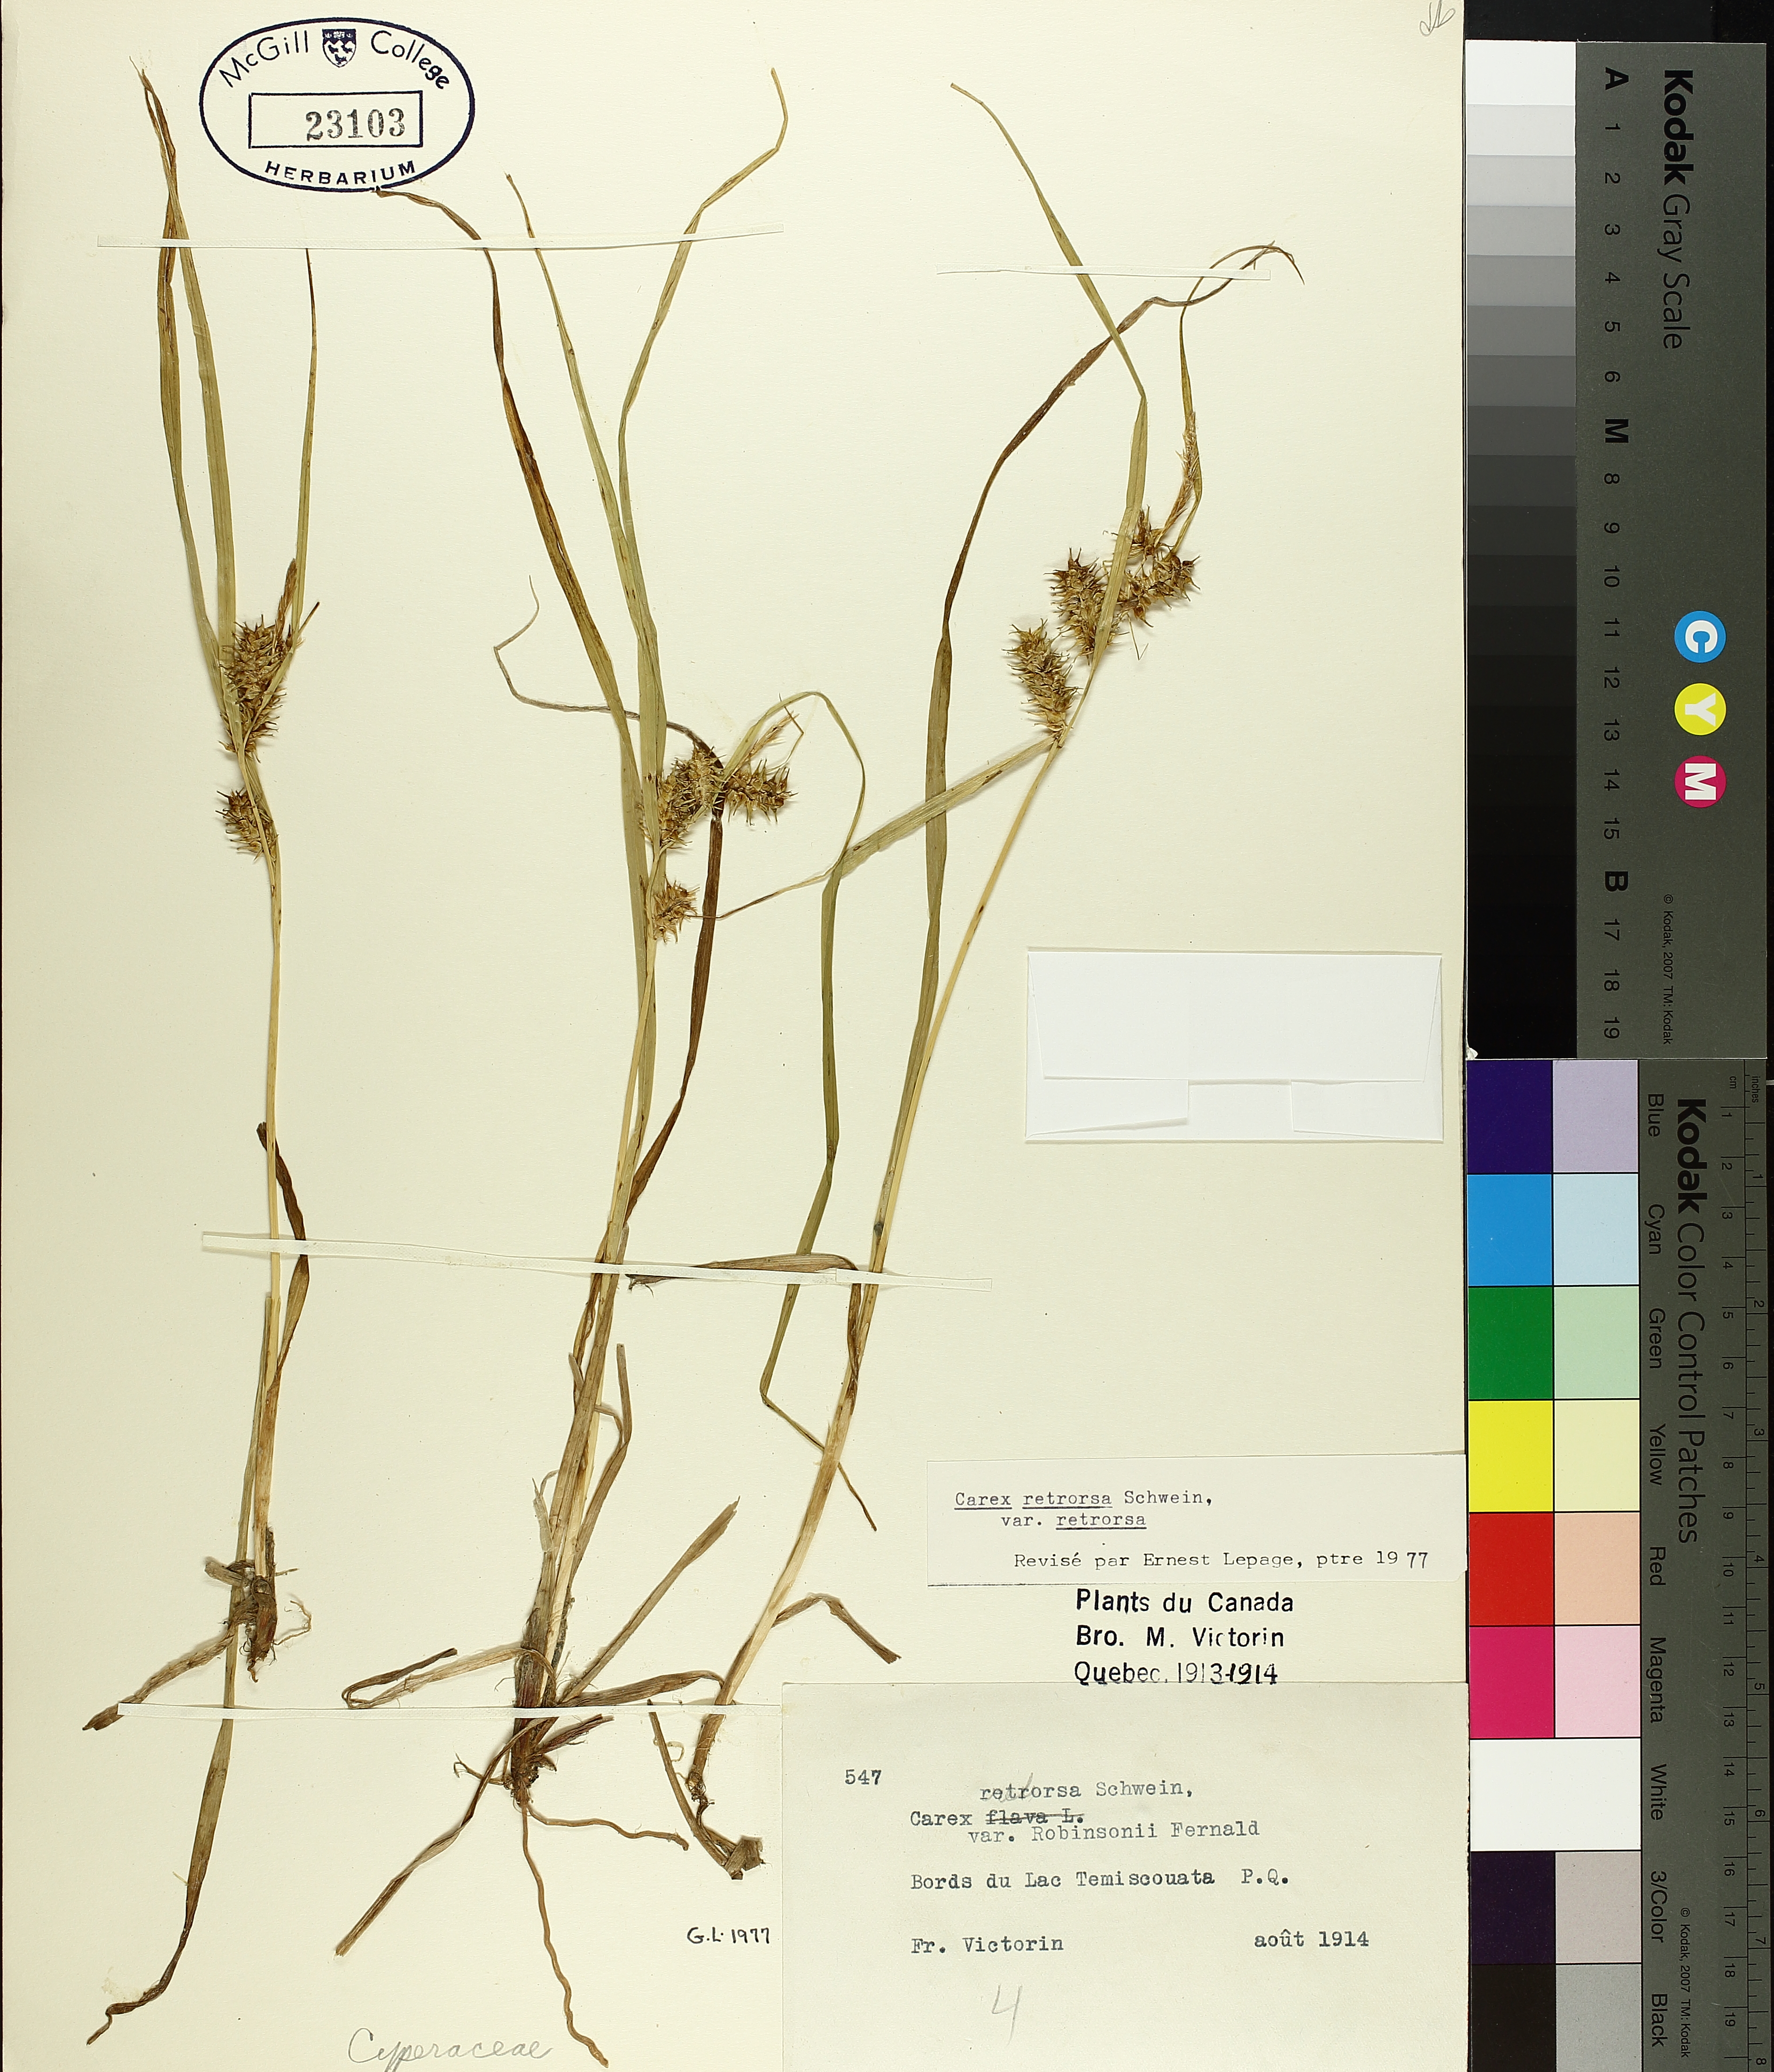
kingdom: Plantae
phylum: Tracheophyta
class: Liliopsida
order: Poales
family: Cyperaceae
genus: Carex
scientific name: Carex retrorsa
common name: Knot-sheath sedge
